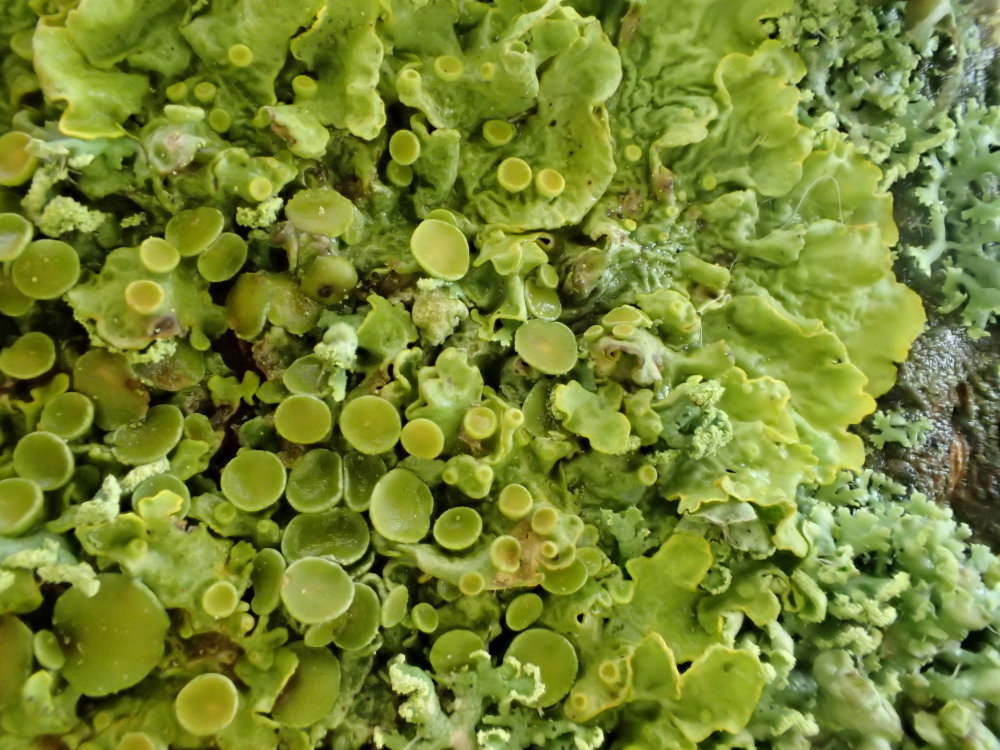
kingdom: Fungi
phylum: Ascomycota
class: Lecanoromycetes
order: Teloschistales
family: Teloschistaceae
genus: Xanthoria
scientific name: Xanthoria parietina
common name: almindelig væggelav
